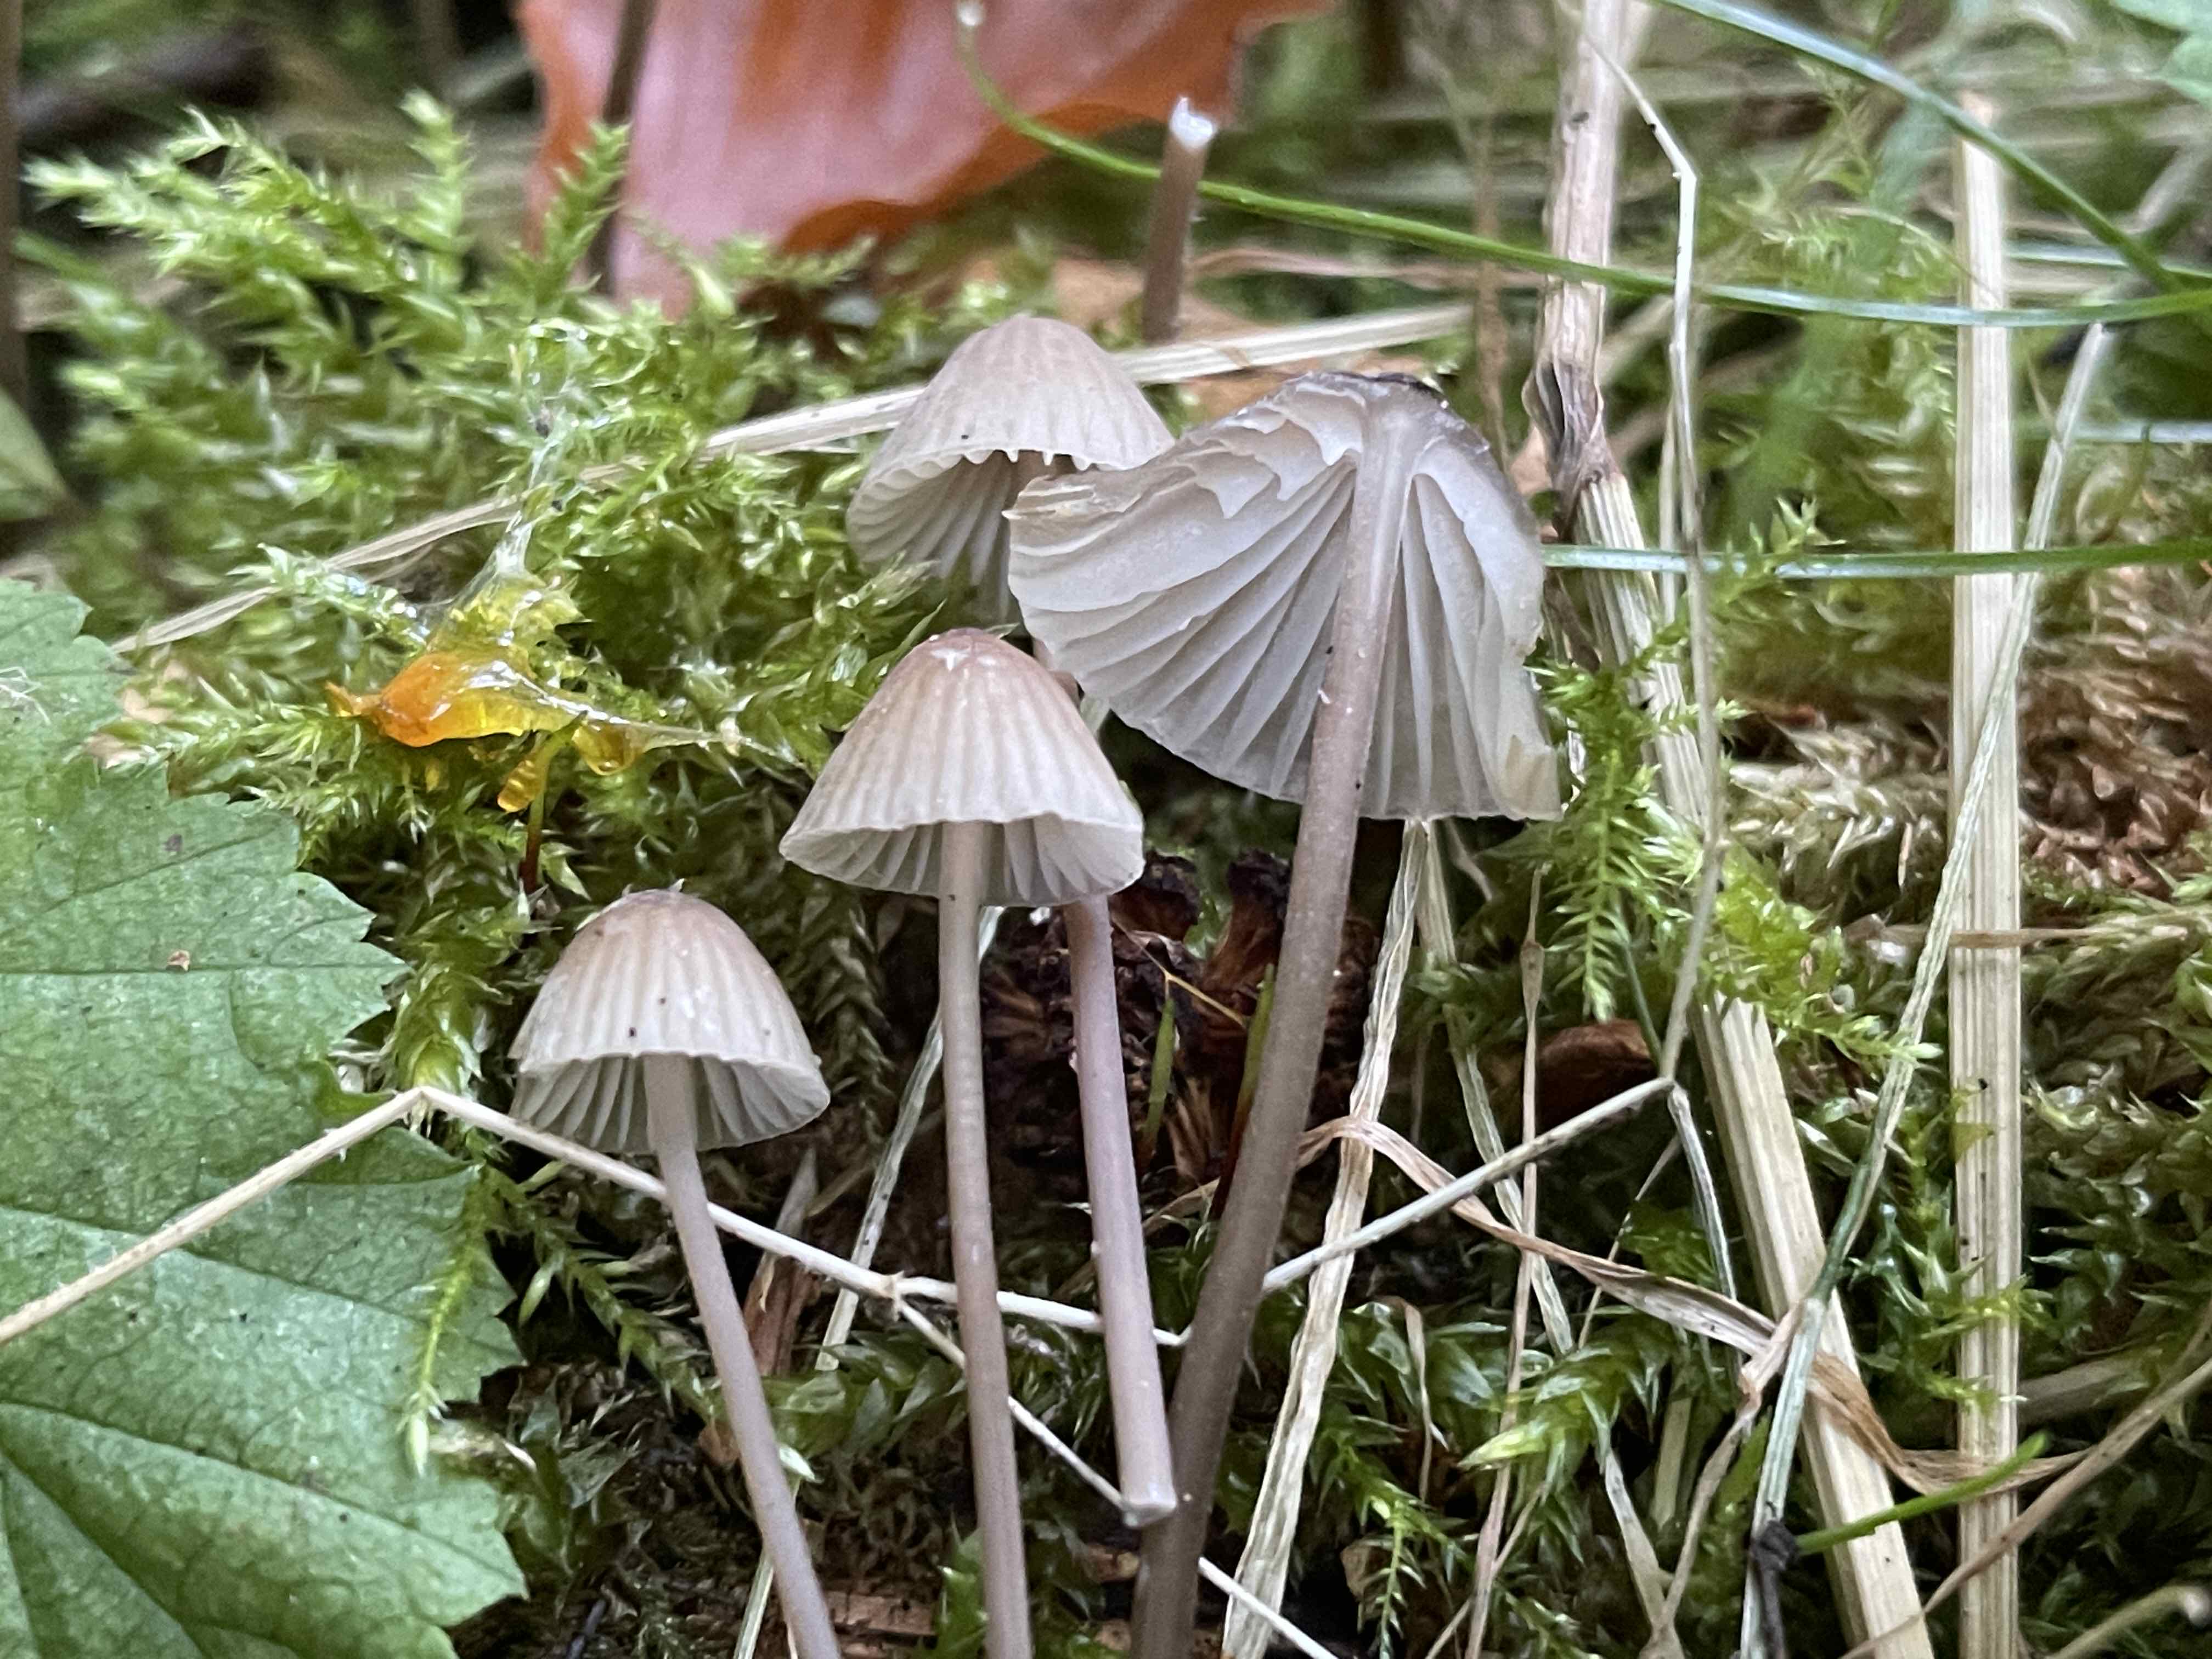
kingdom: Fungi
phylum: Basidiomycota
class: Agaricomycetes
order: Agaricales
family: Mycenaceae
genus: Mycena
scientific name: Mycena galopus
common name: hvidmælket huesvamp
